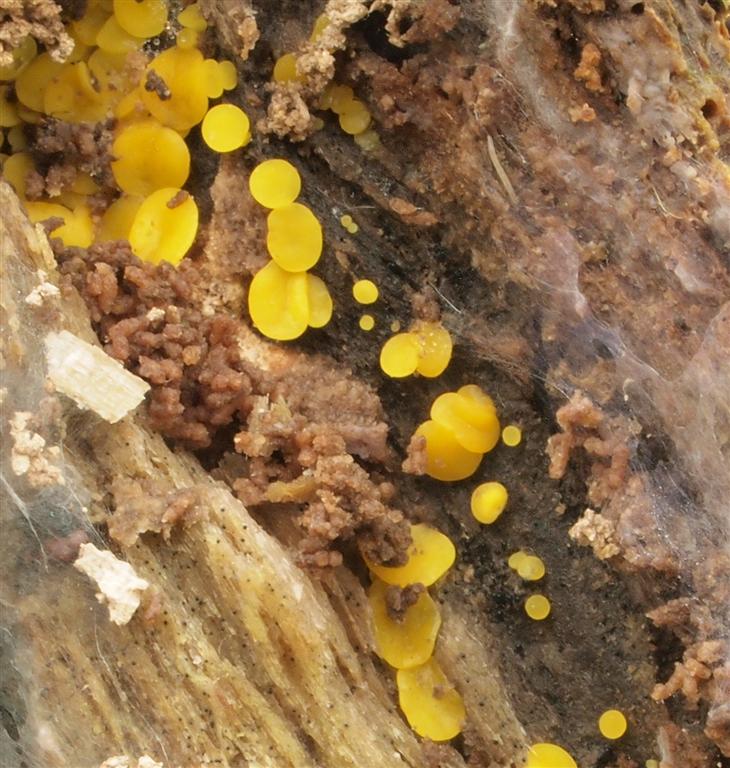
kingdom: Fungi
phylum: Ascomycota
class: Leotiomycetes
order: Helotiales
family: Pezizellaceae
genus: Calycina
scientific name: Calycina citrina
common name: almindelig gulskive
